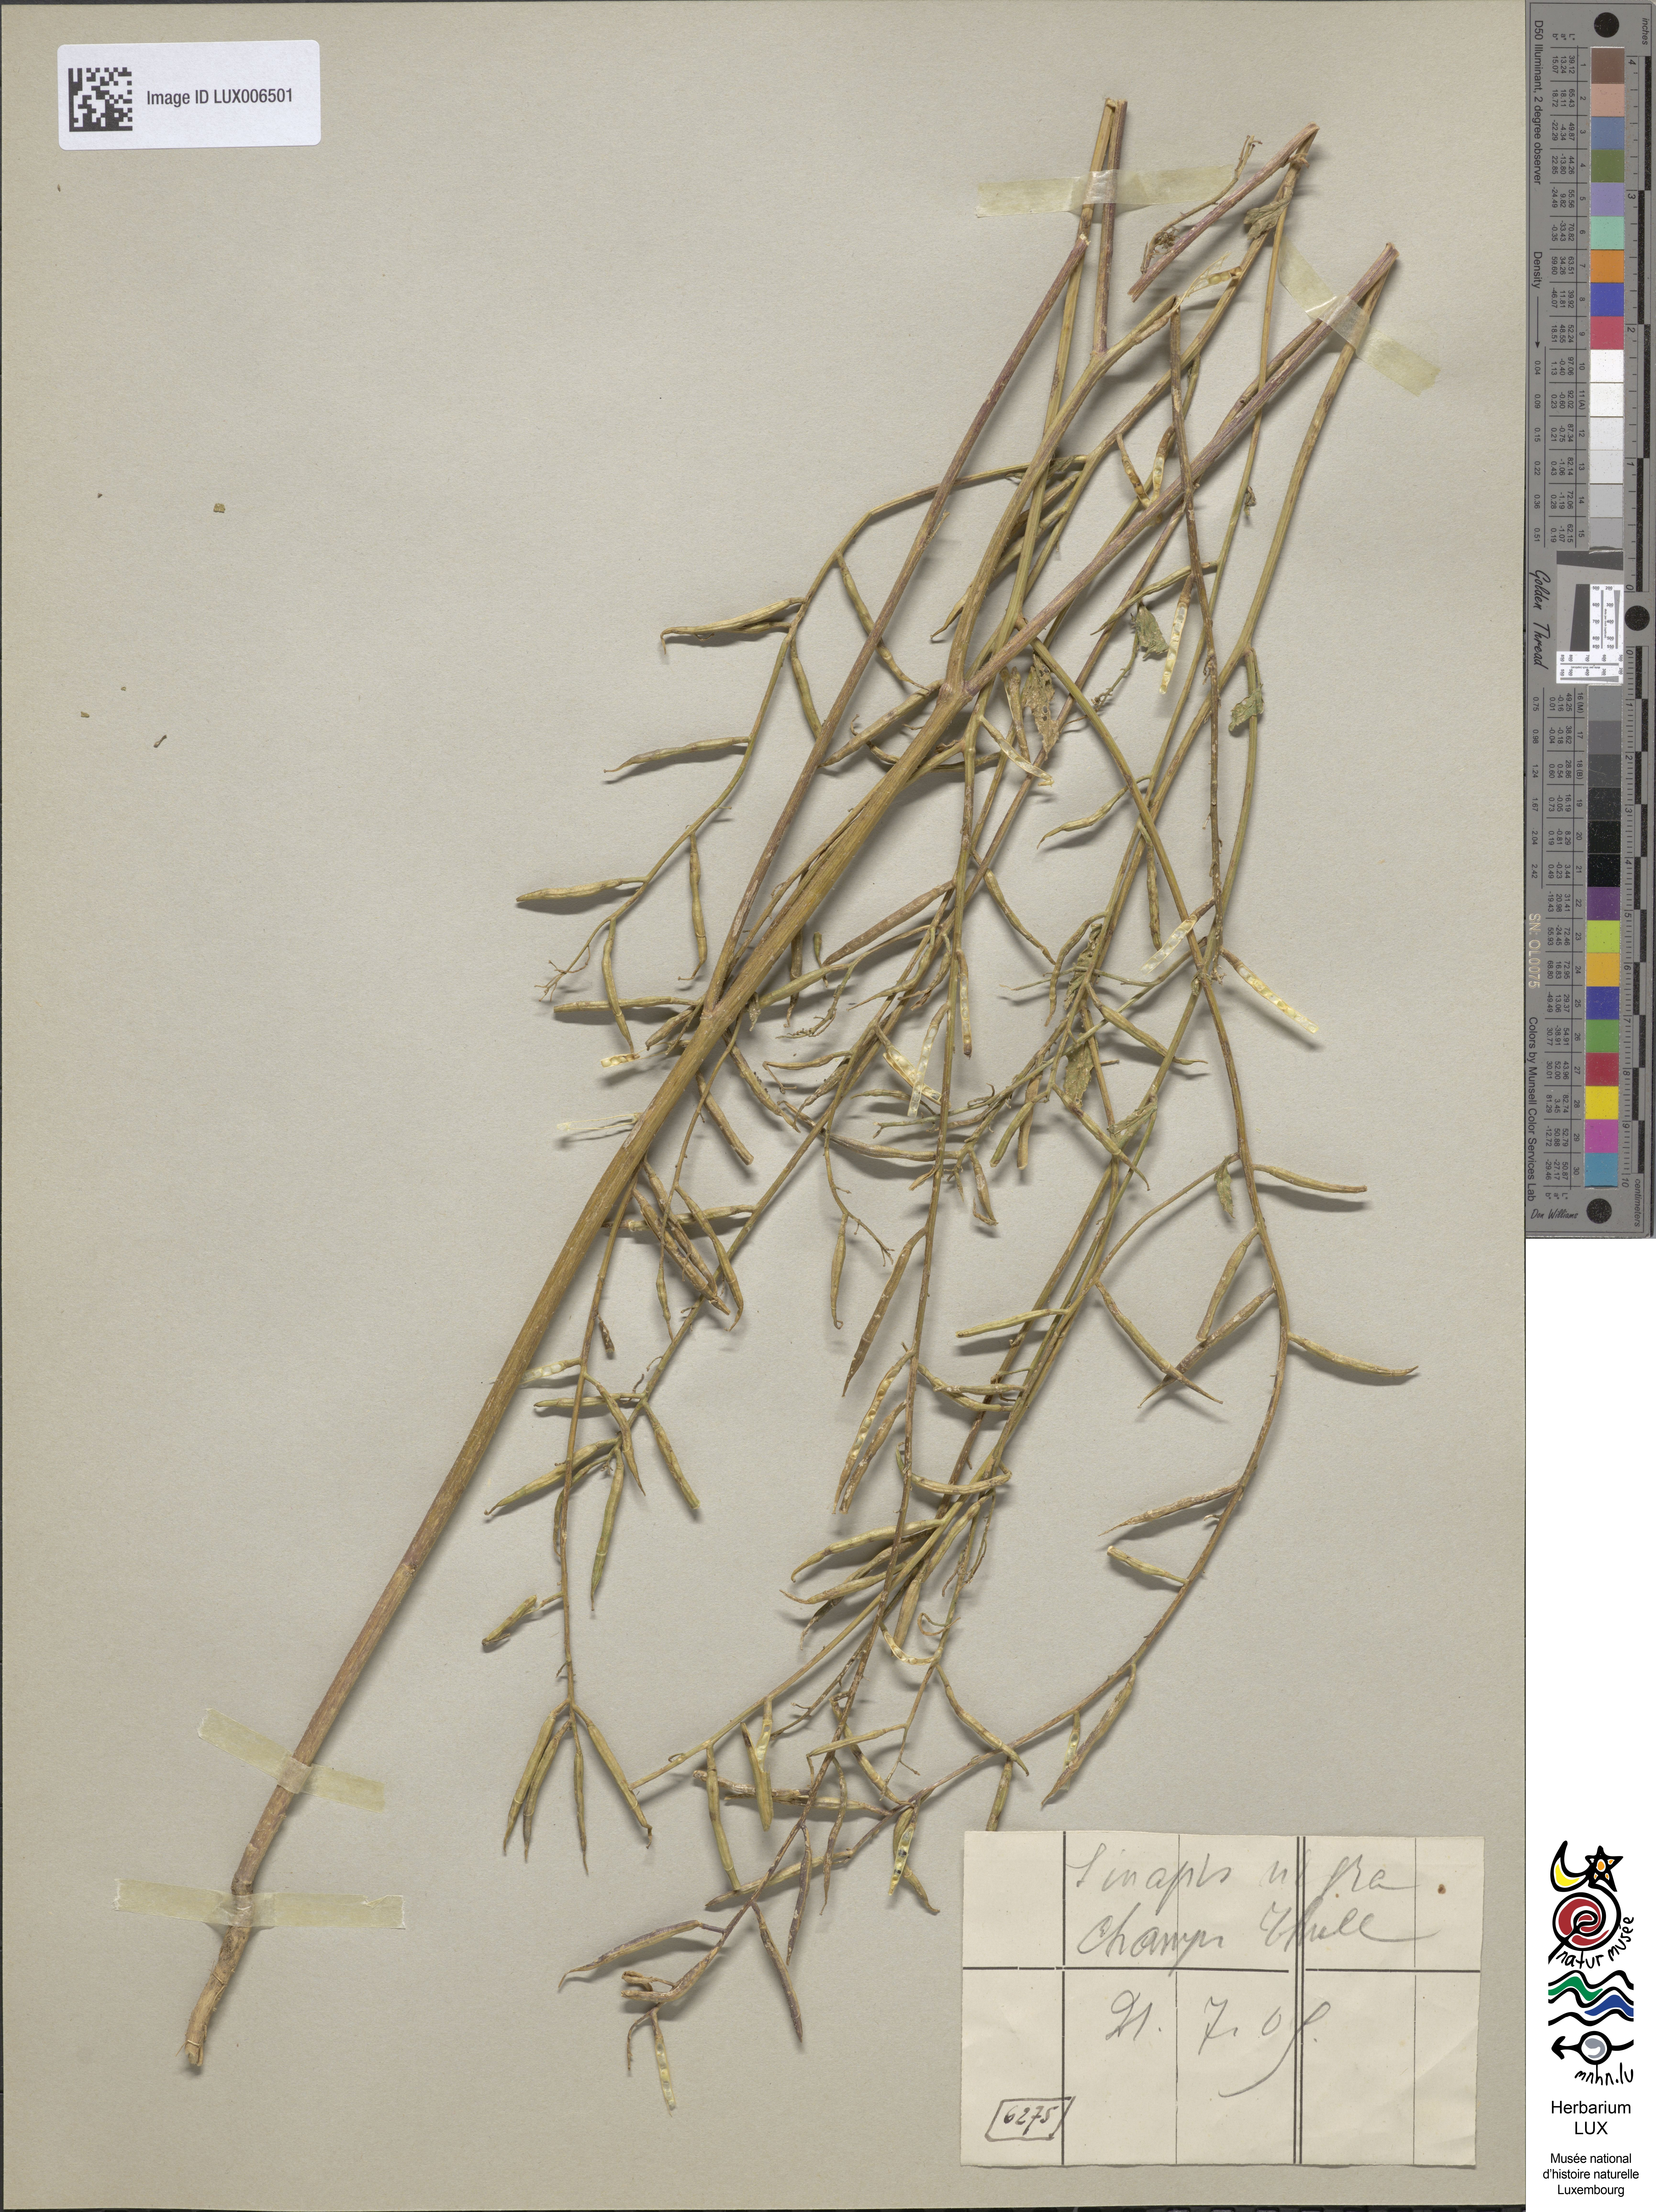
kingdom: Plantae
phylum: Tracheophyta
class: Magnoliopsida
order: Brassicales
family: Brassicaceae
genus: Brassica
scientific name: Brassica nigra
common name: Black mustard
